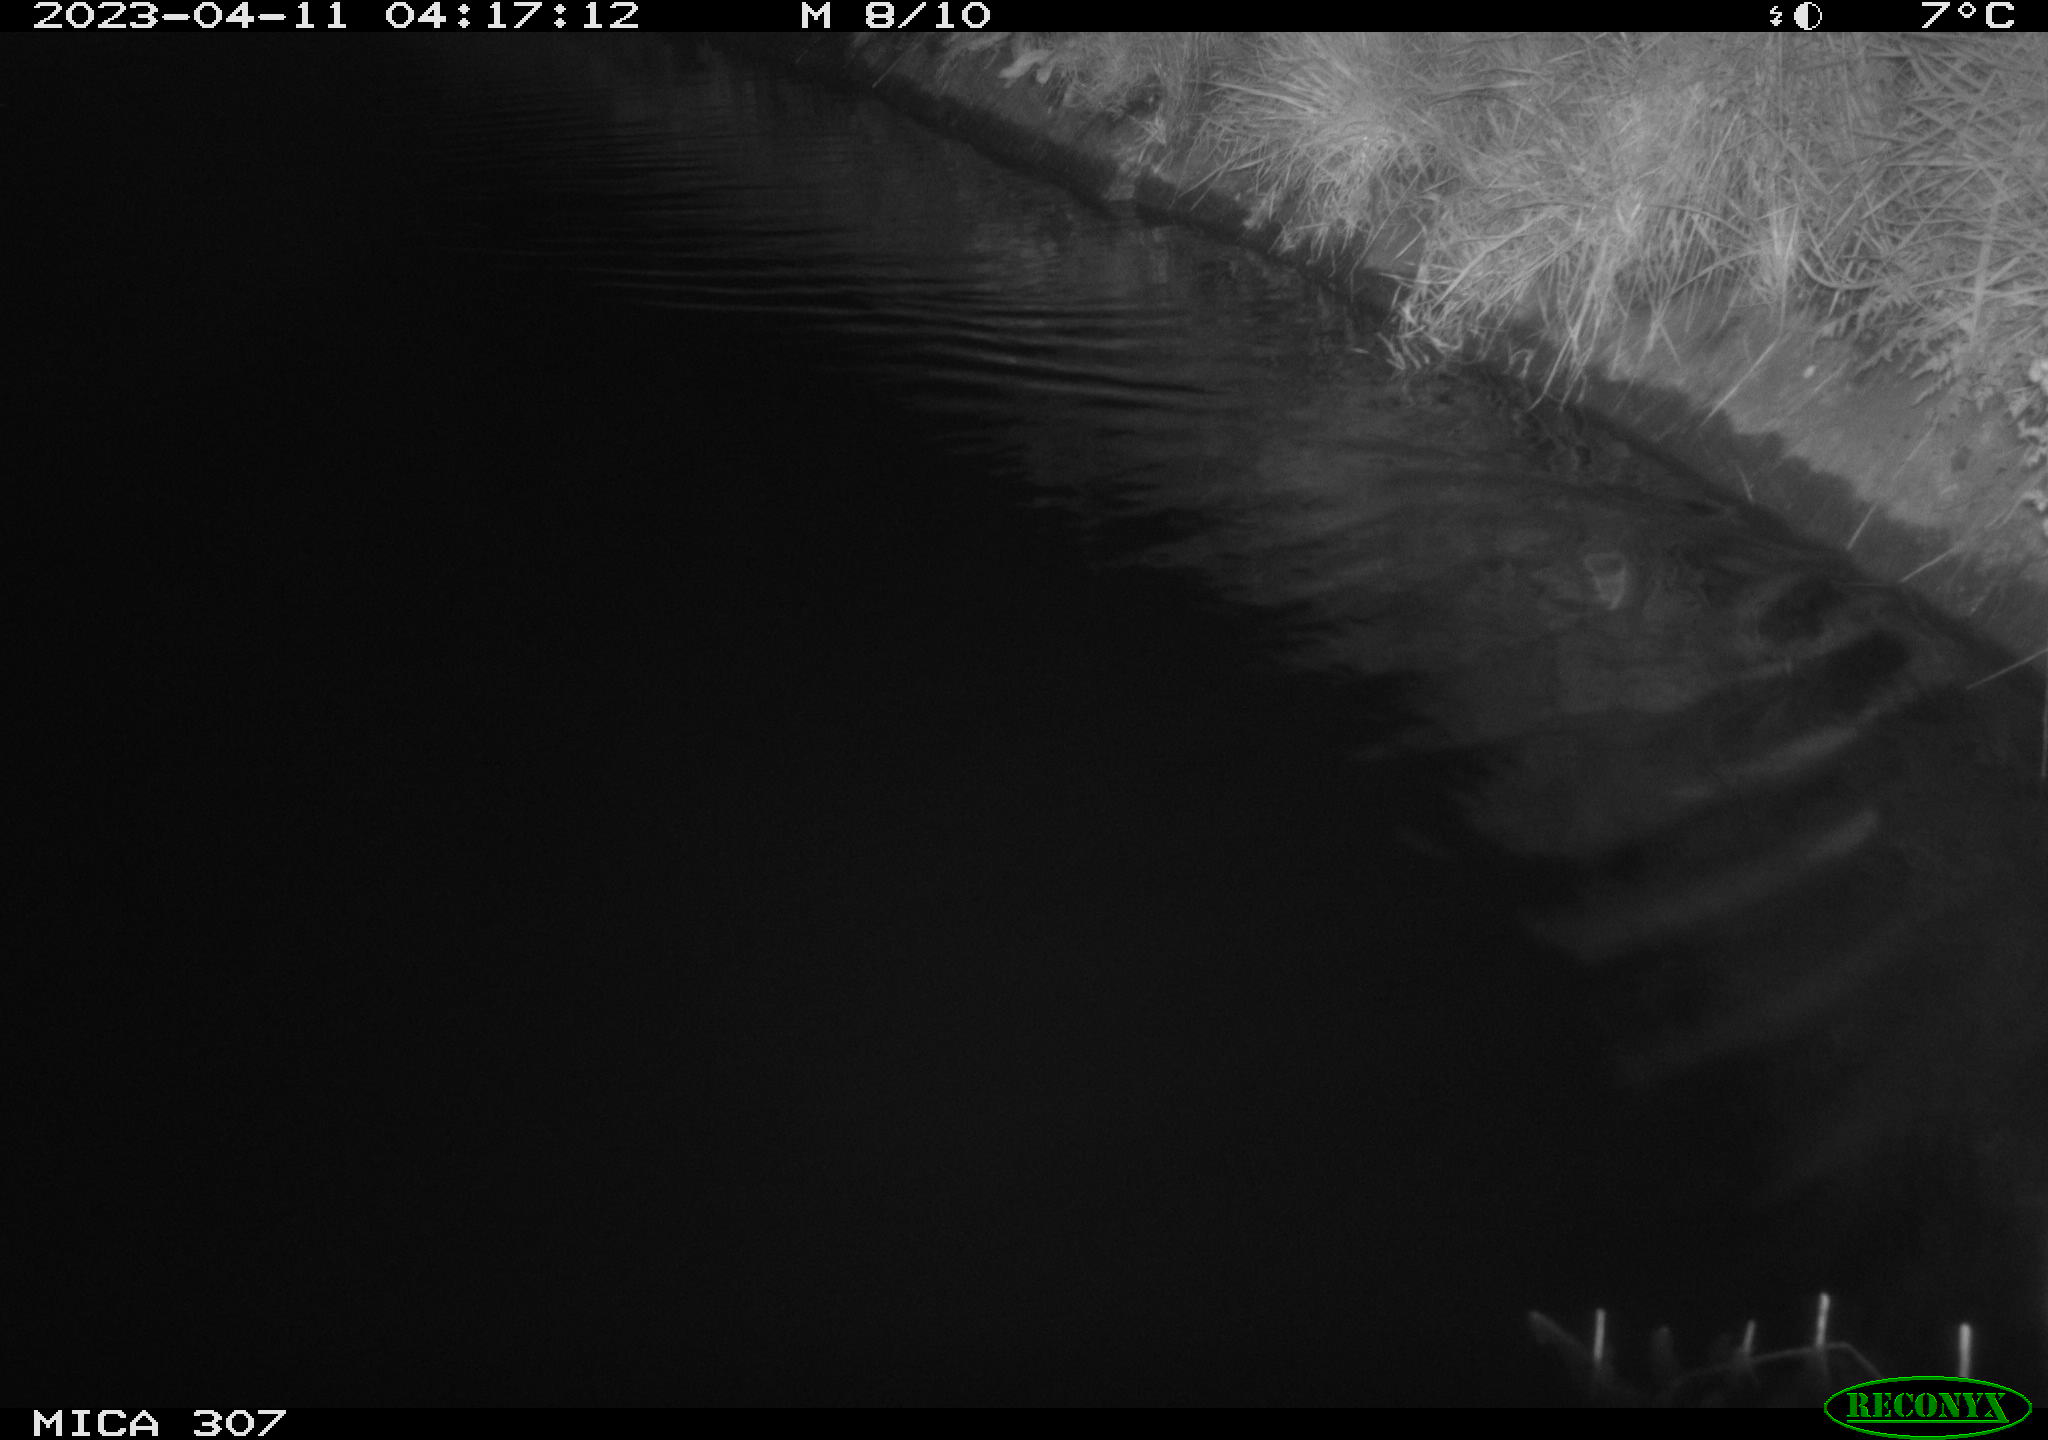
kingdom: Animalia
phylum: Chordata
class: Aves
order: Anseriformes
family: Anatidae
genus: Anas
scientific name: Anas
